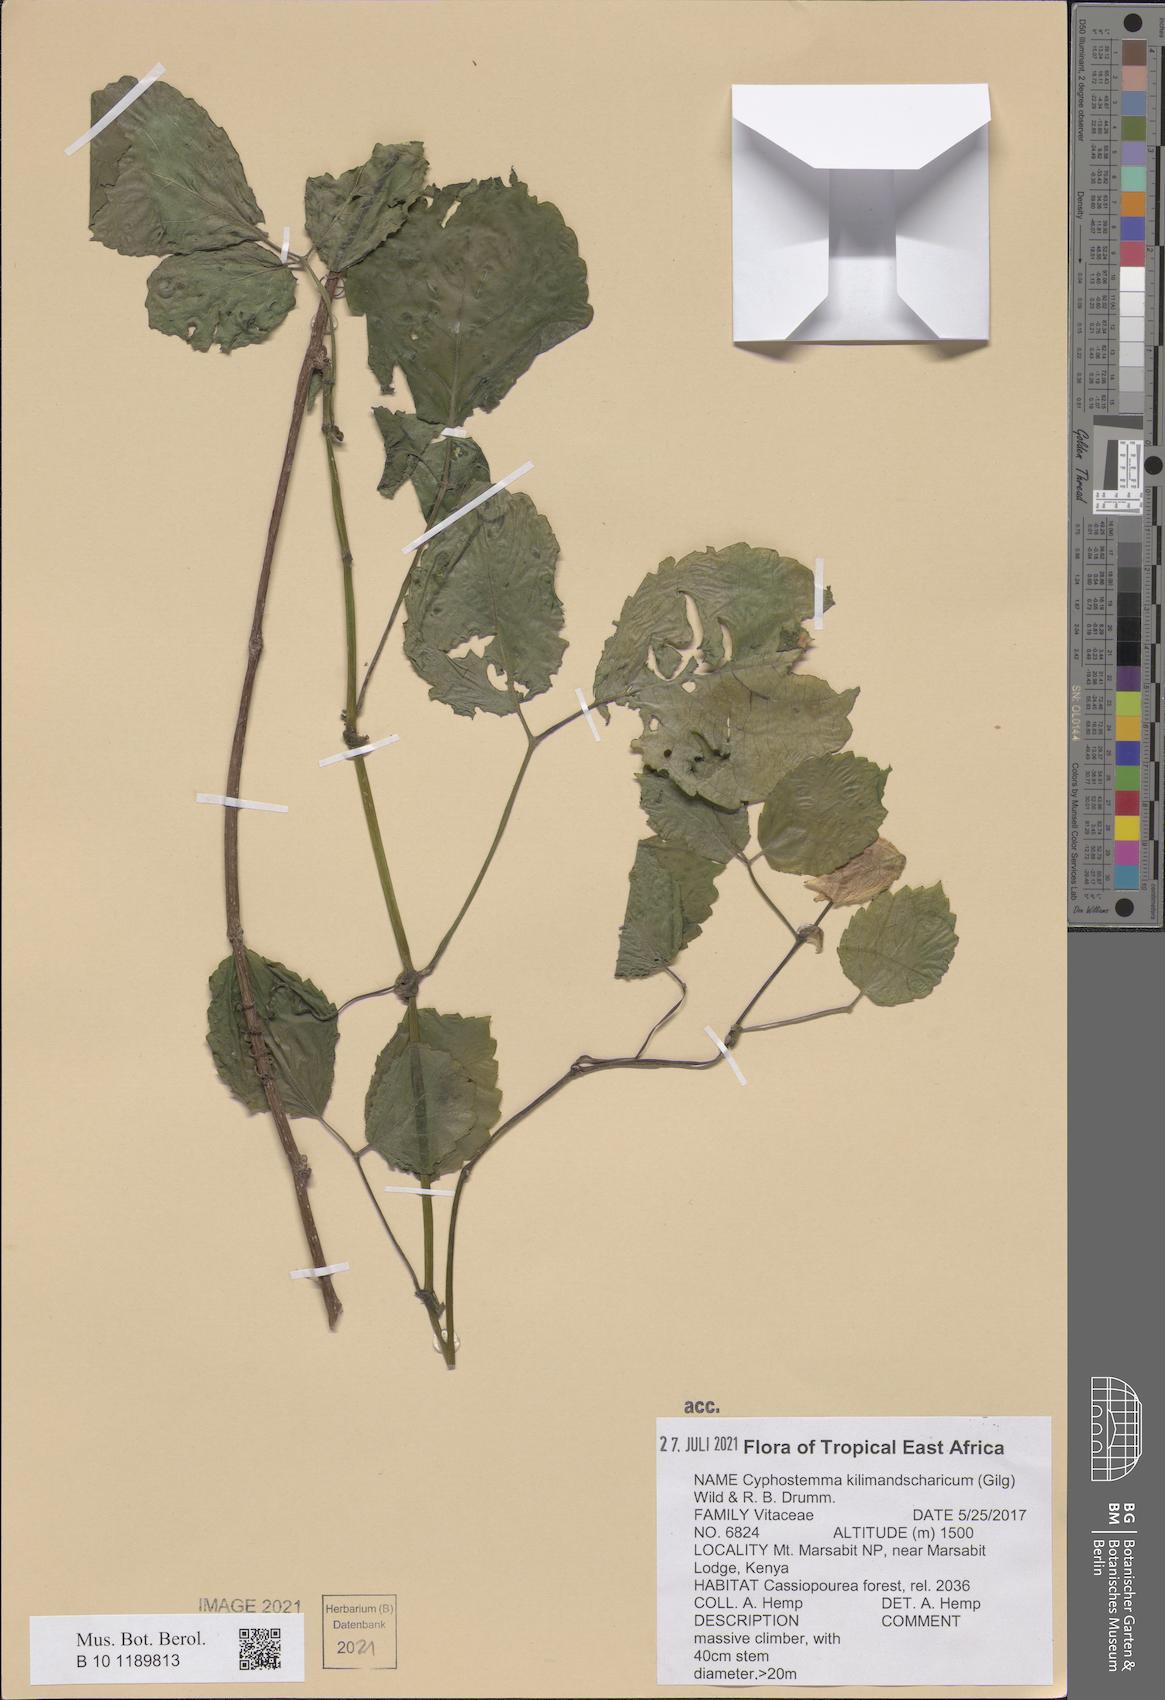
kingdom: Plantae
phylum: Tracheophyta
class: Magnoliopsida
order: Vitales
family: Vitaceae
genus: Cyphostemma
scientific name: Cyphostemma kilimandscharicum
